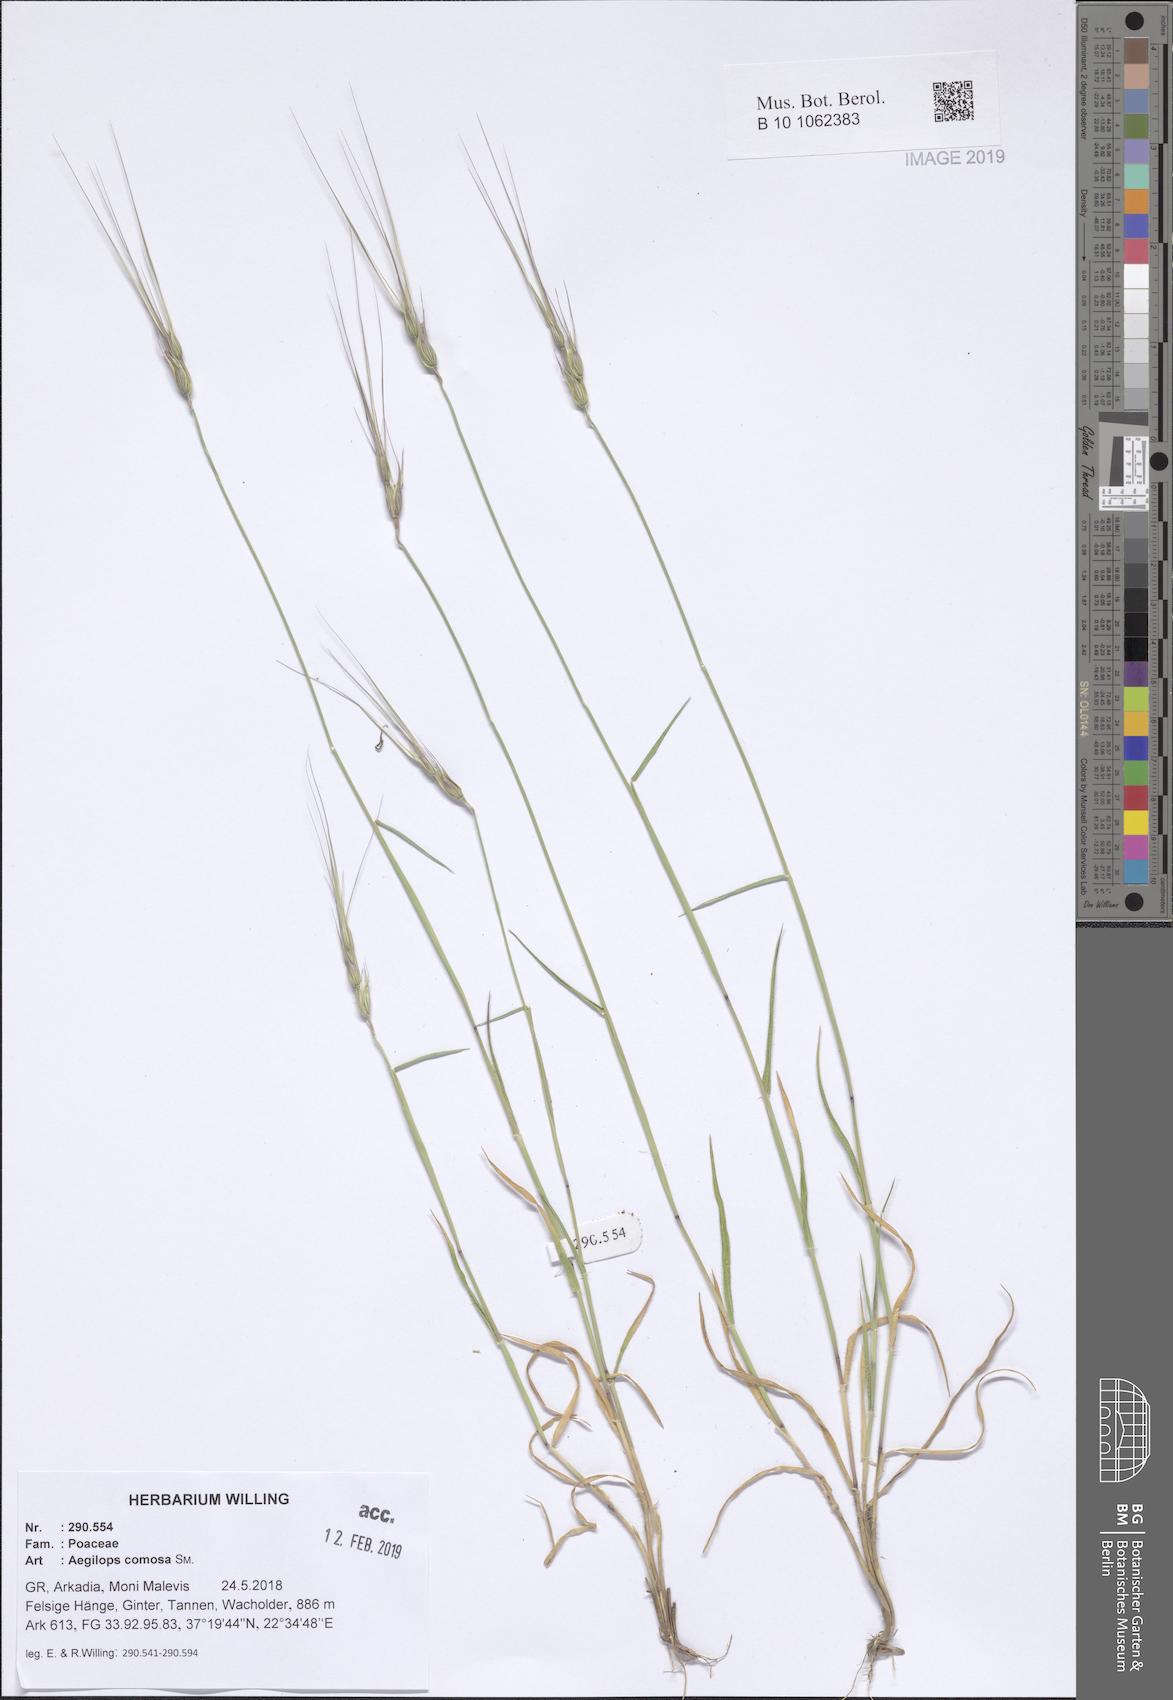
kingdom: Plantae
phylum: Tracheophyta
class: Liliopsida
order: Poales
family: Poaceae
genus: Aegilops
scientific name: Aegilops comosa
